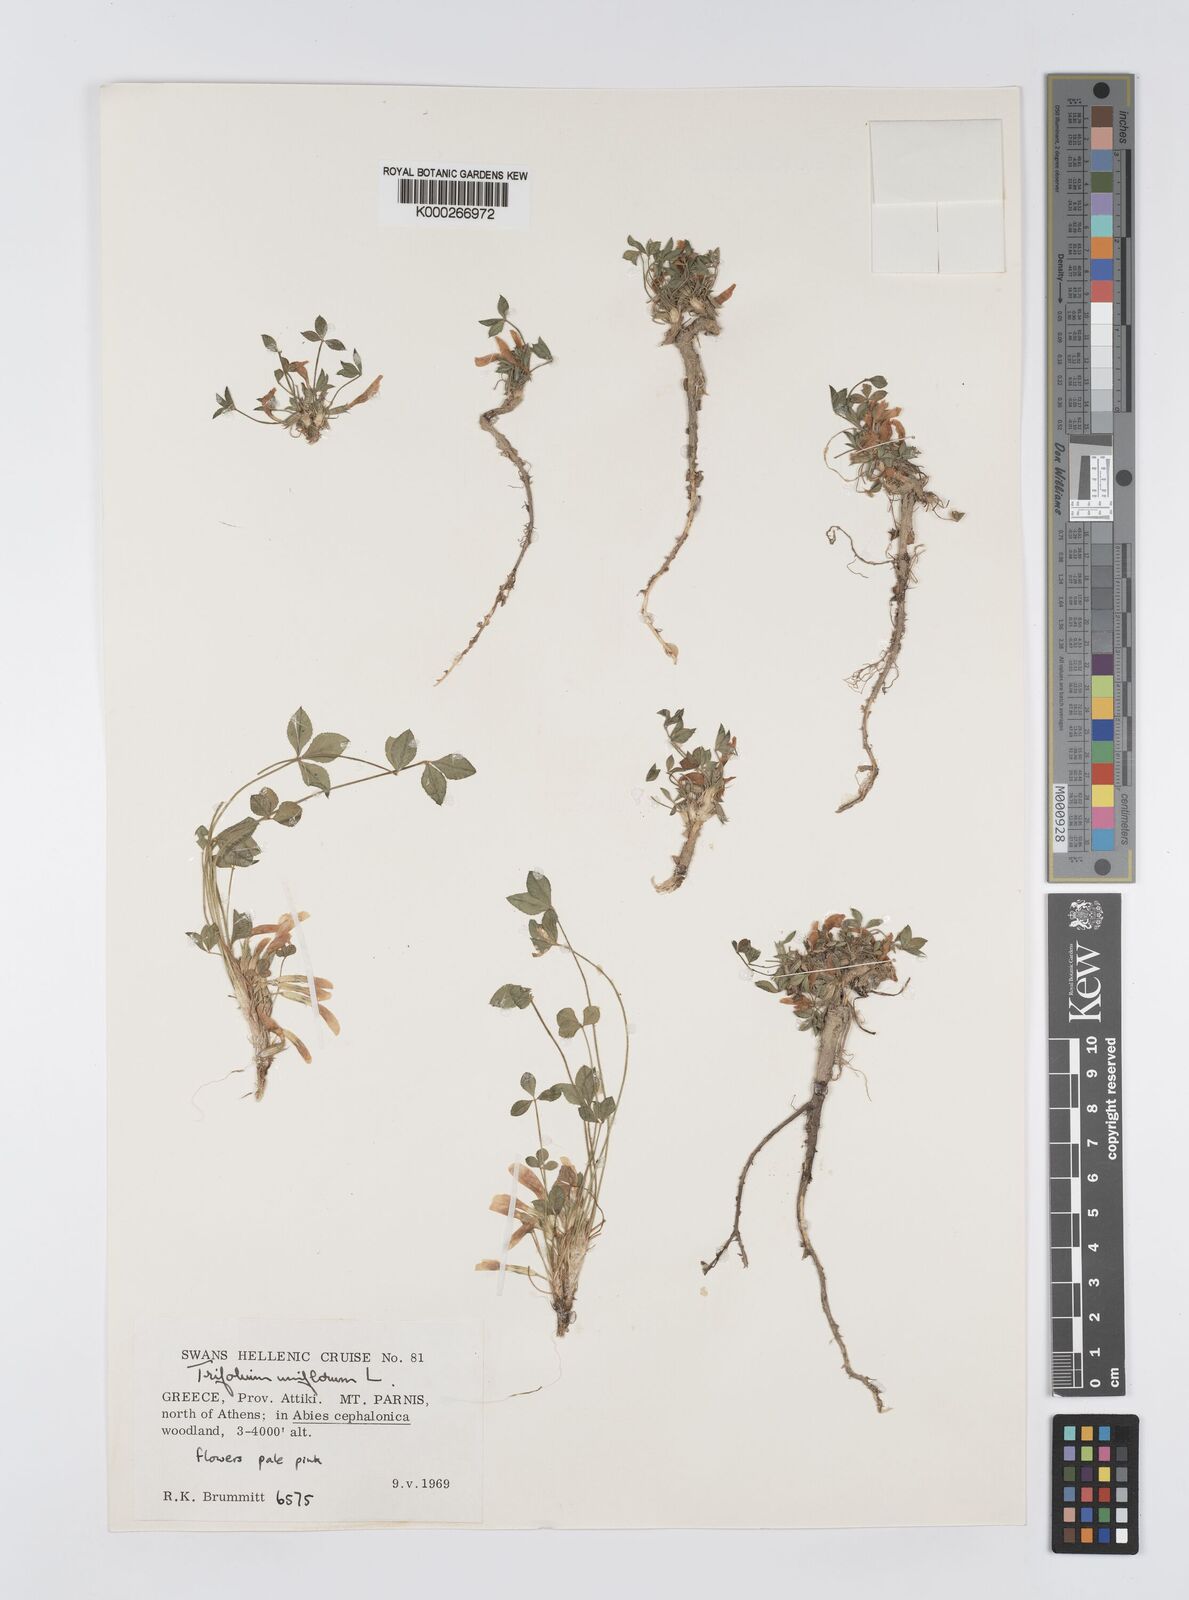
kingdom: Plantae
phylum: Tracheophyta
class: Magnoliopsida
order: Fabales
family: Fabaceae
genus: Trifolium
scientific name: Trifolium uniflorum
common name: One-flower clover
